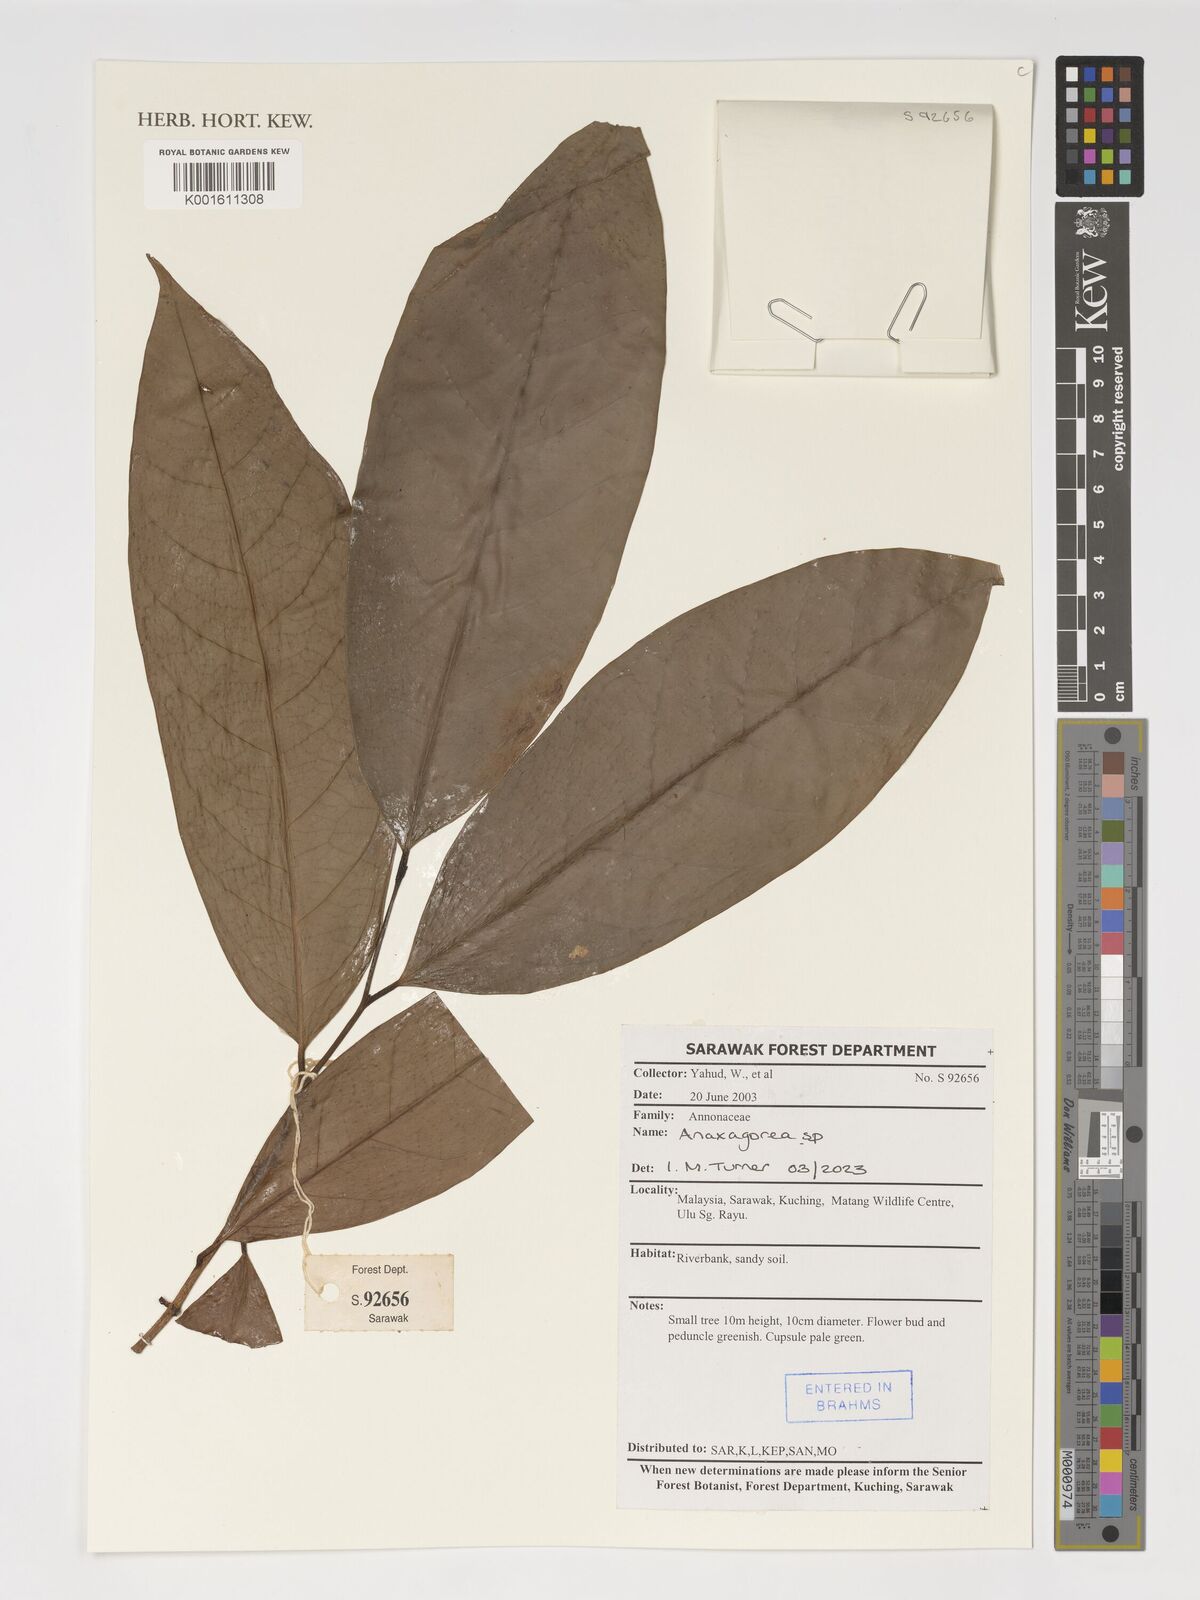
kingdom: Plantae
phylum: Tracheophyta
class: Magnoliopsida
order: Magnoliales
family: Annonaceae
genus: Anaxagorea
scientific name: Anaxagorea
